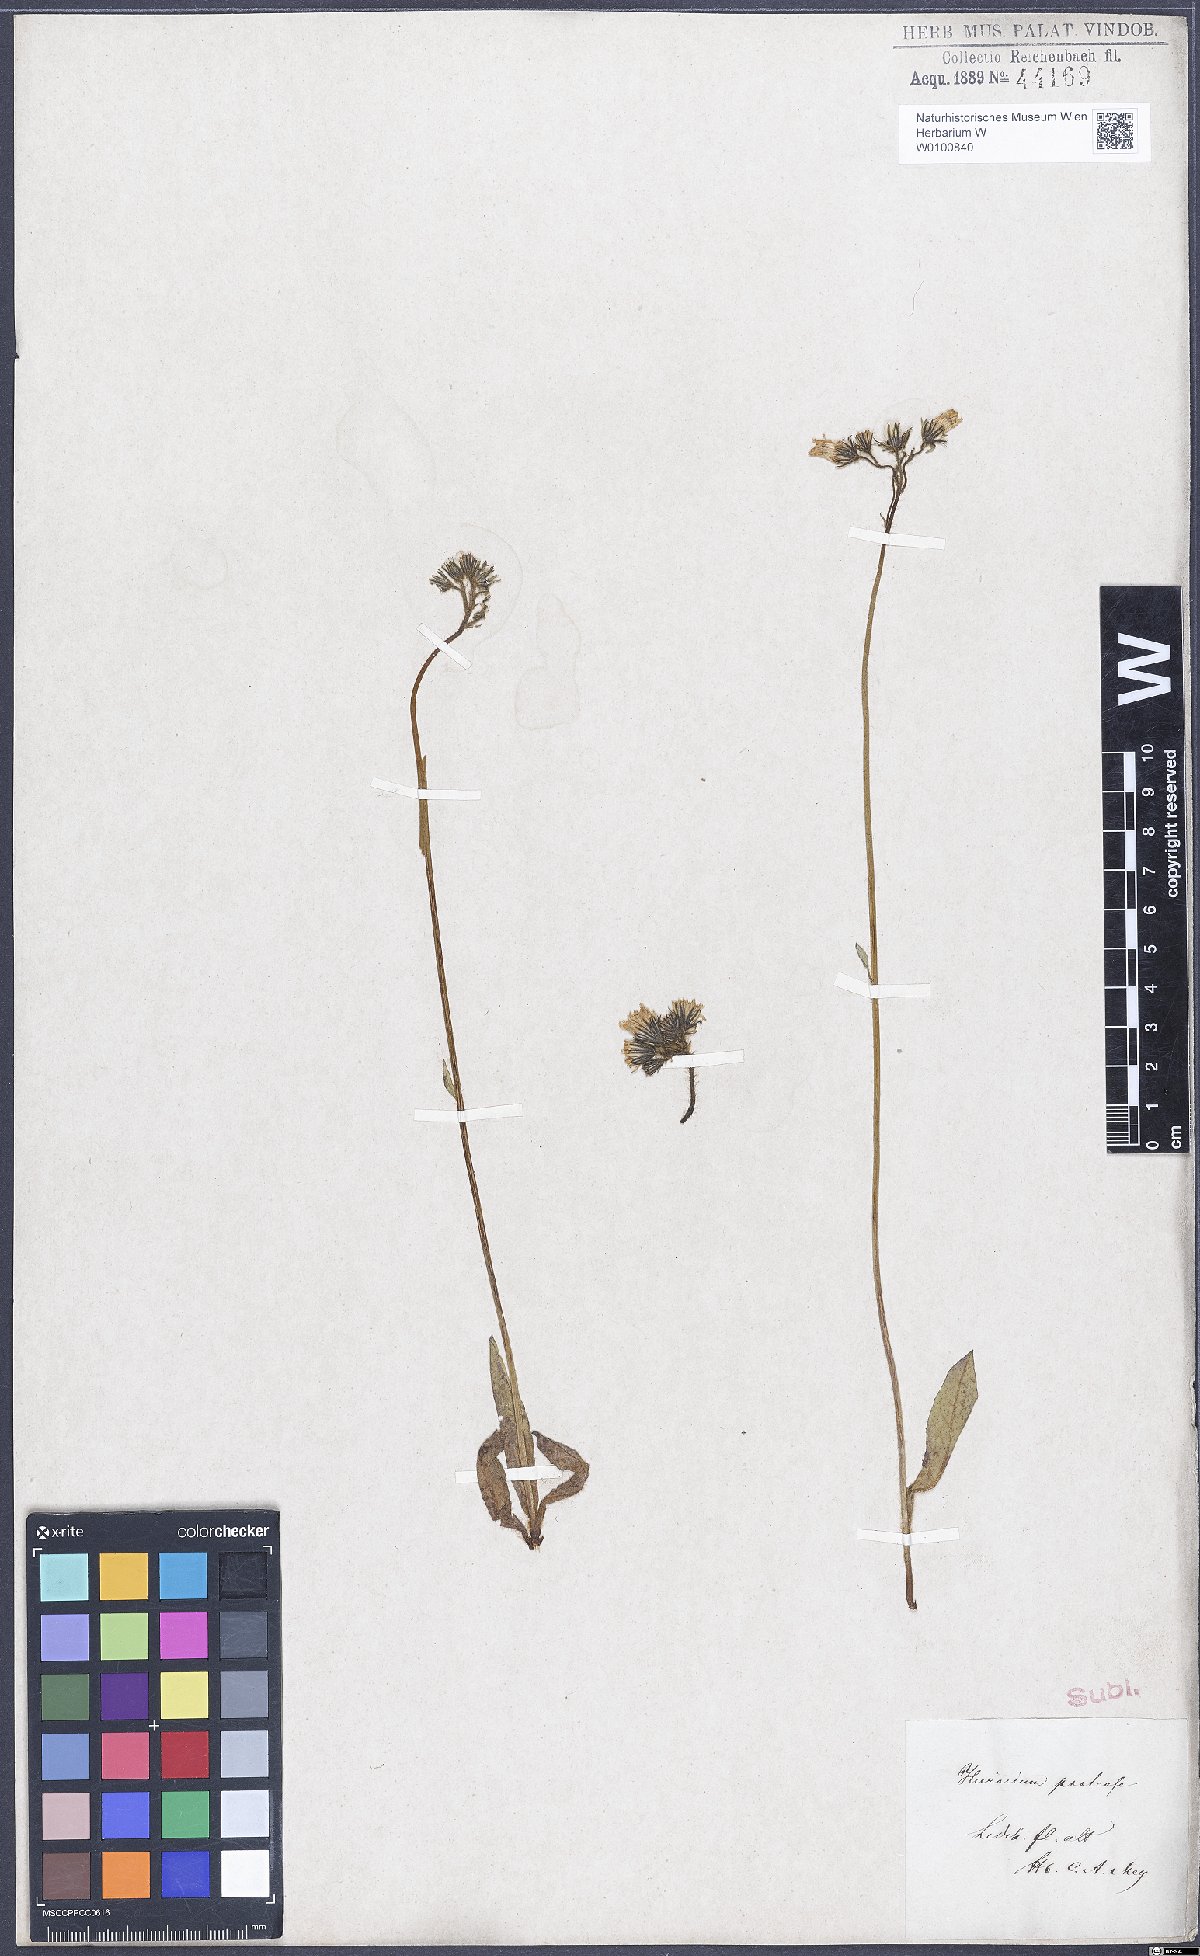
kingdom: Plantae
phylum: Tracheophyta
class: Magnoliopsida
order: Asterales
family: Asteraceae
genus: Pilosella
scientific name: Pilosella caespitosa
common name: Yellow fox-and-cubs
